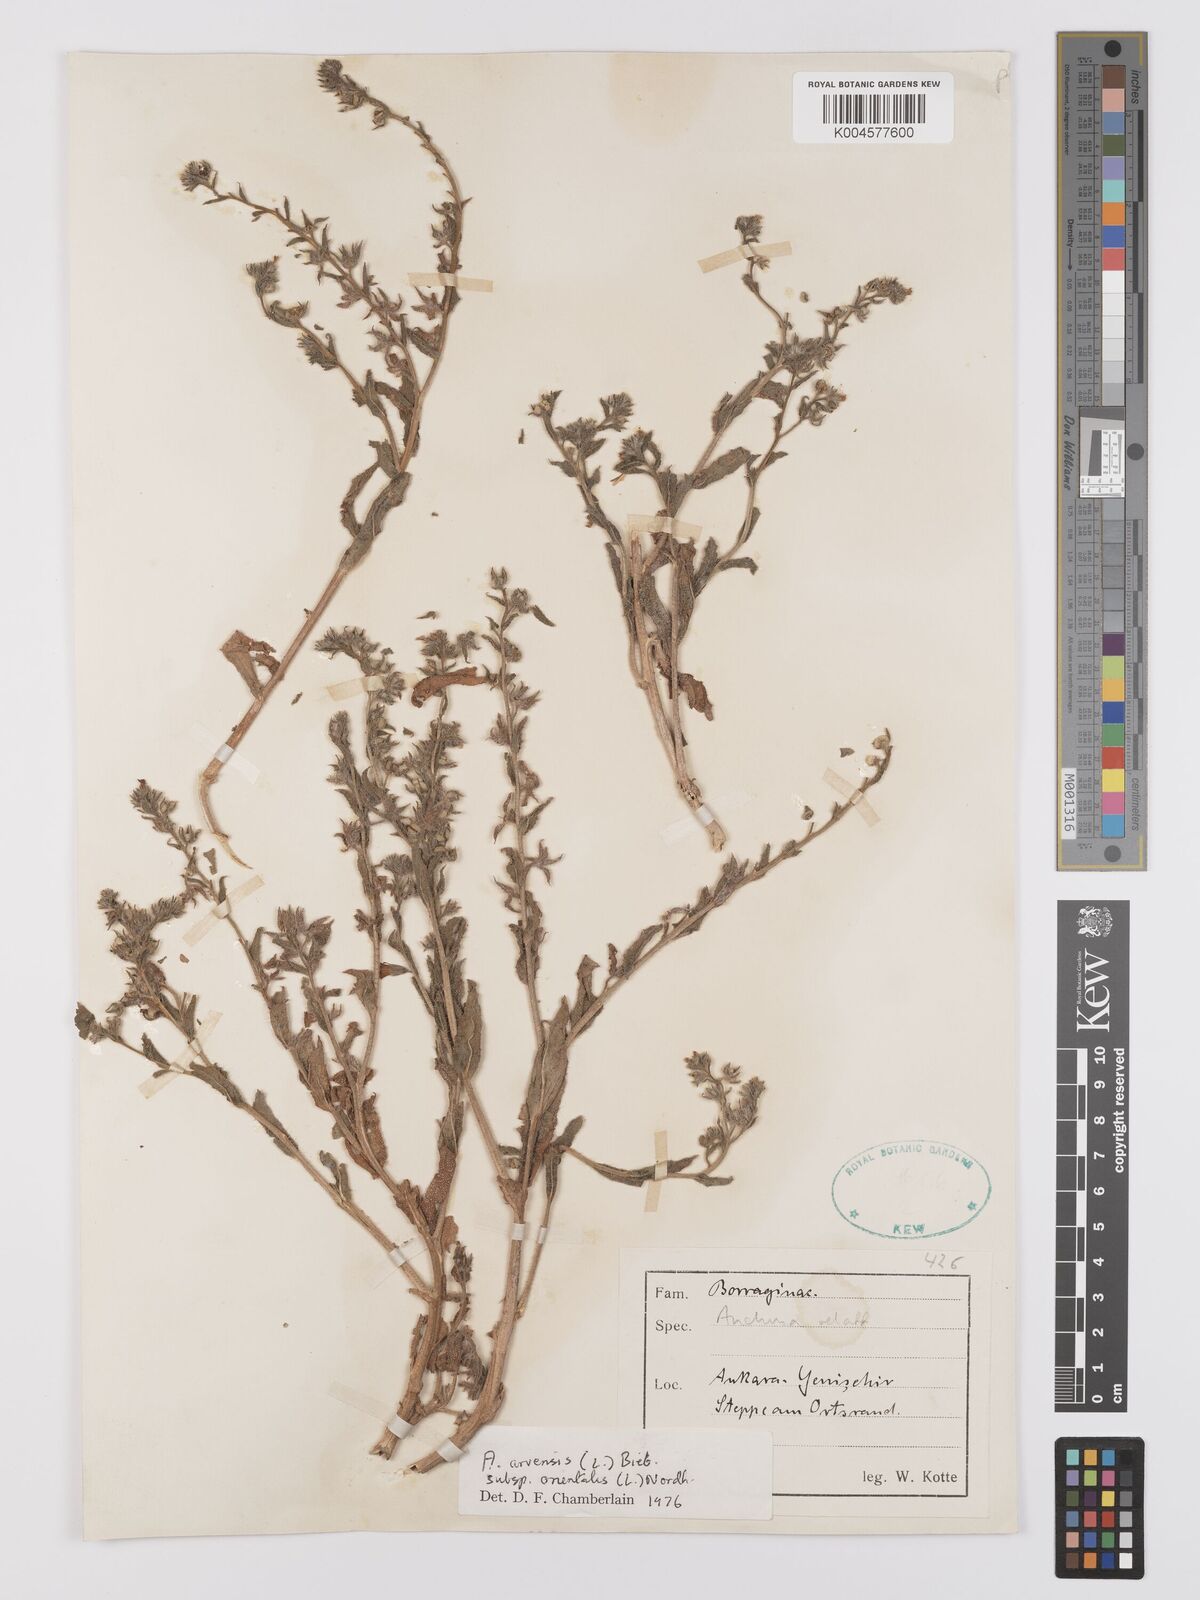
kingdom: Plantae
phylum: Tracheophyta
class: Magnoliopsida
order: Boraginales
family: Boraginaceae
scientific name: Boraginaceae
